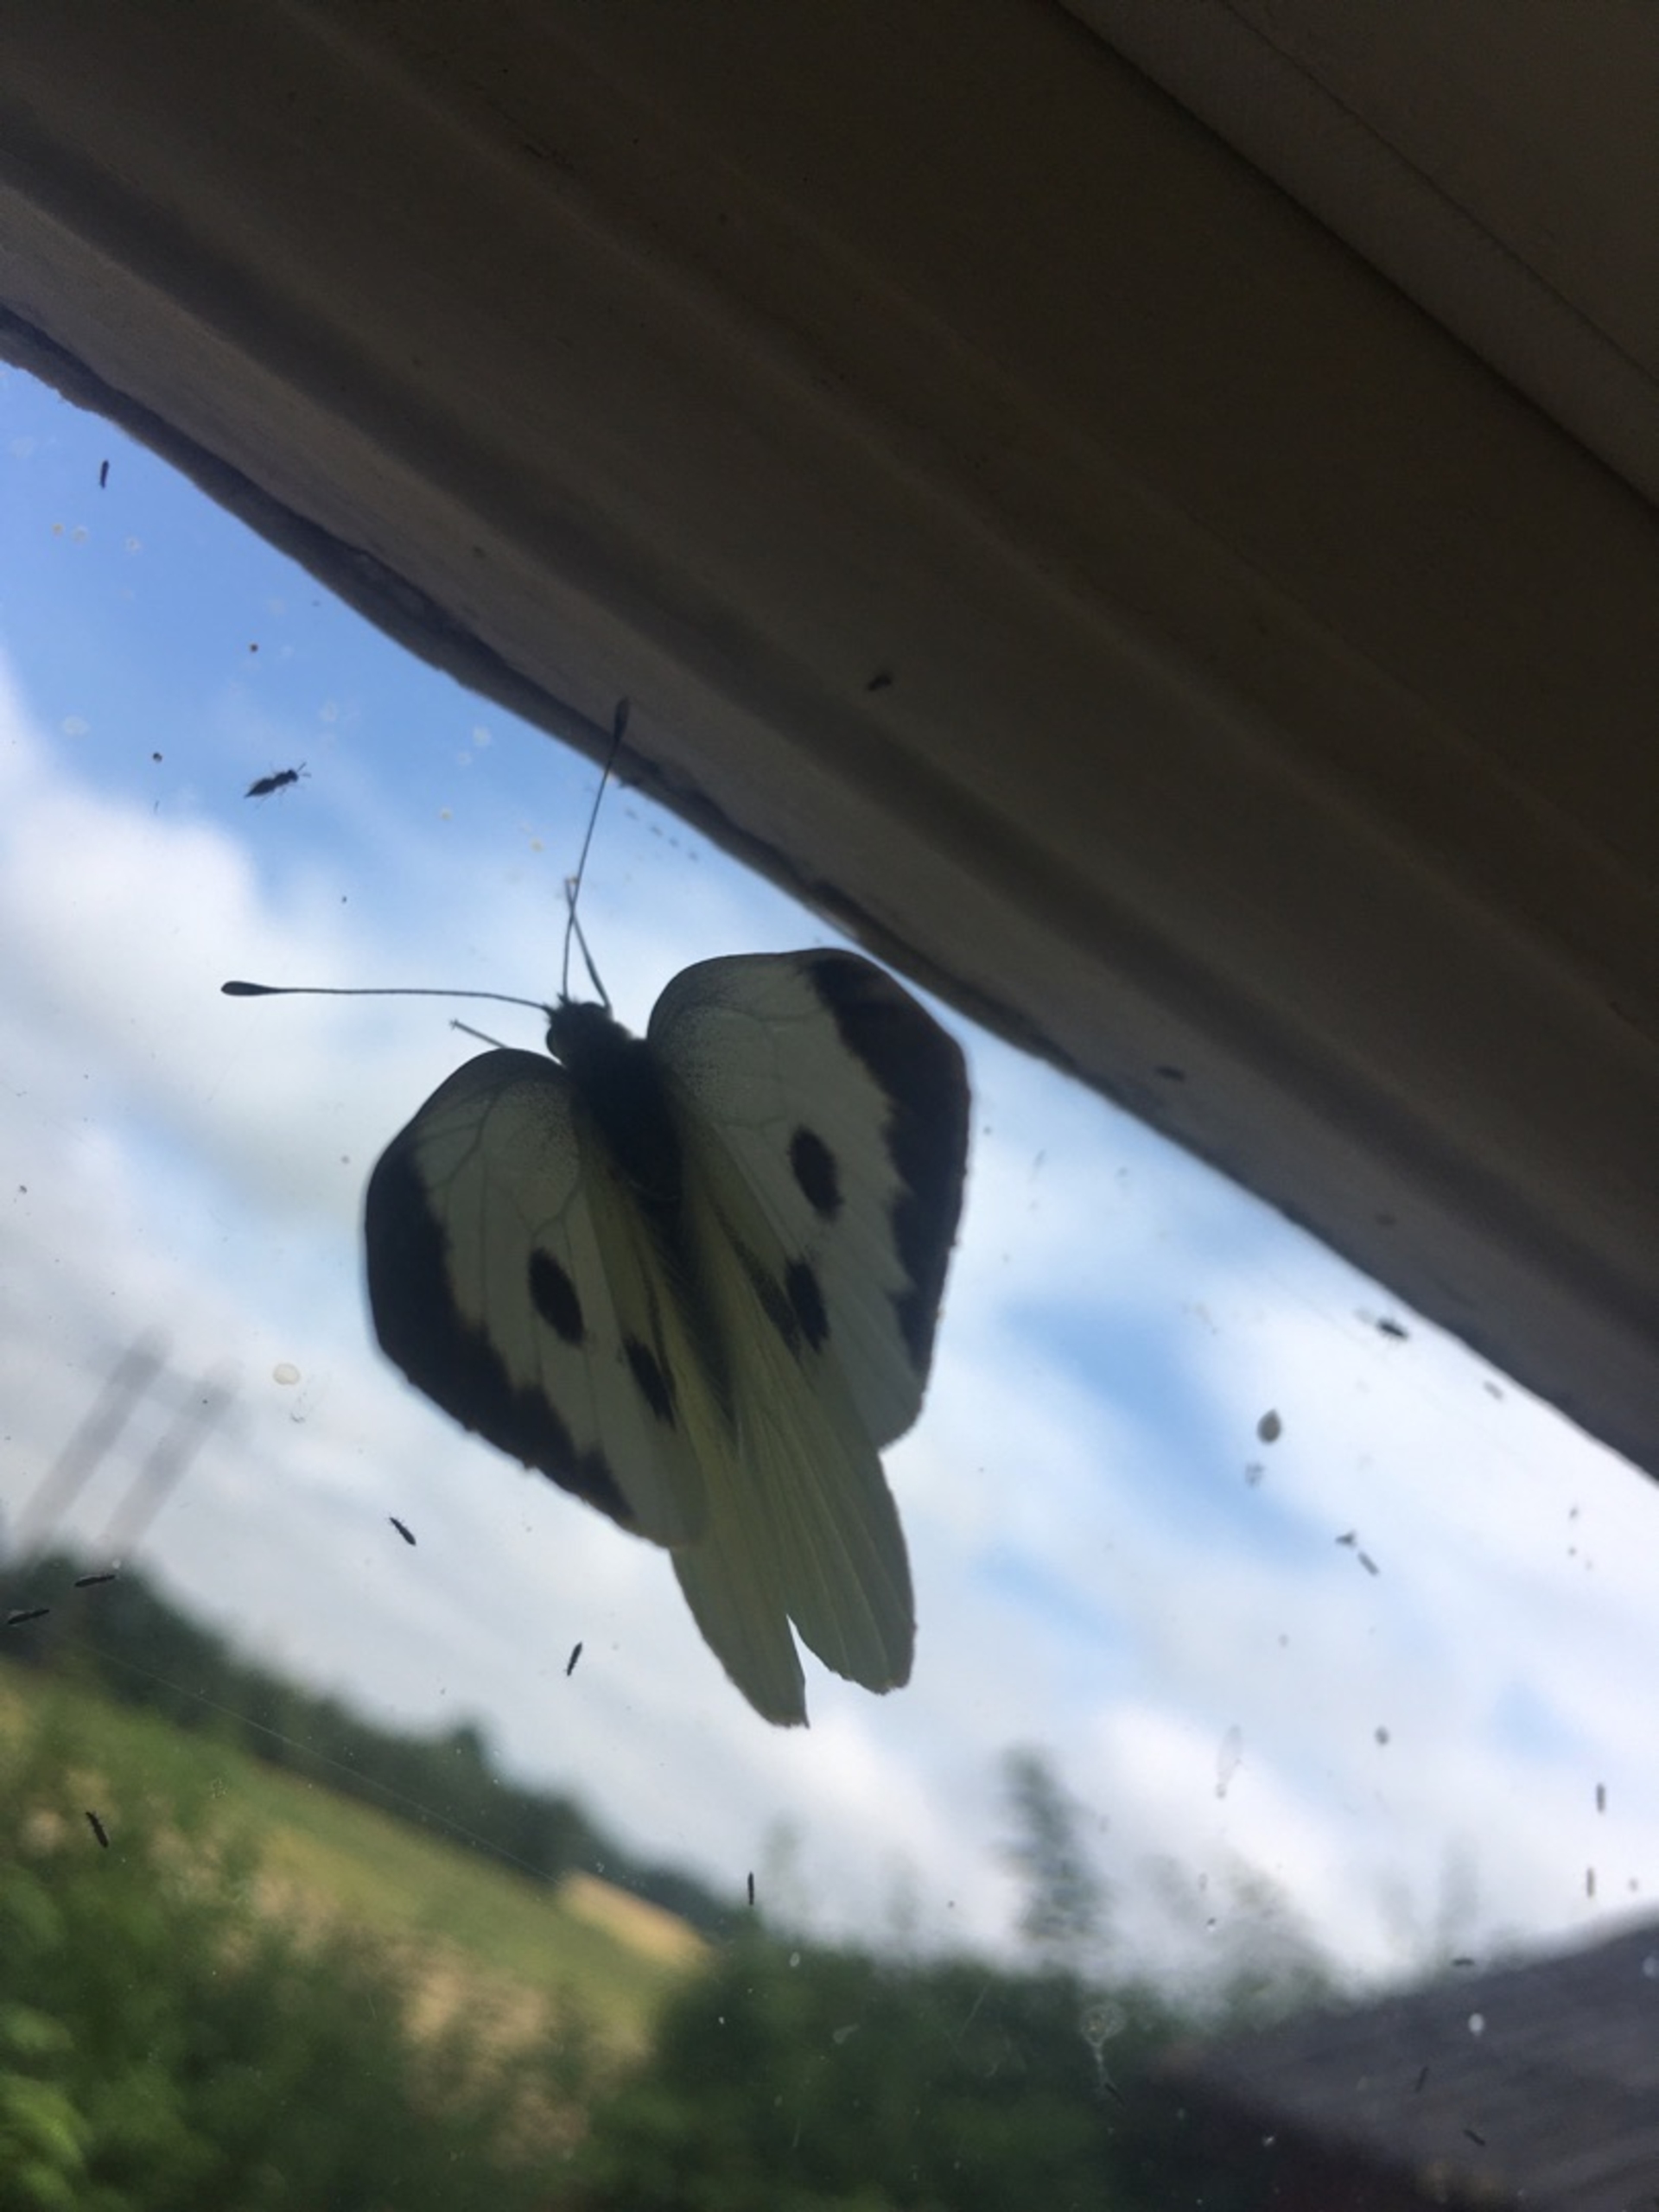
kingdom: Animalia
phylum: Arthropoda
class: Insecta
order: Lepidoptera
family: Pieridae
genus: Pieris
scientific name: Pieris brassicae
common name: Stor kålsommerfugl
